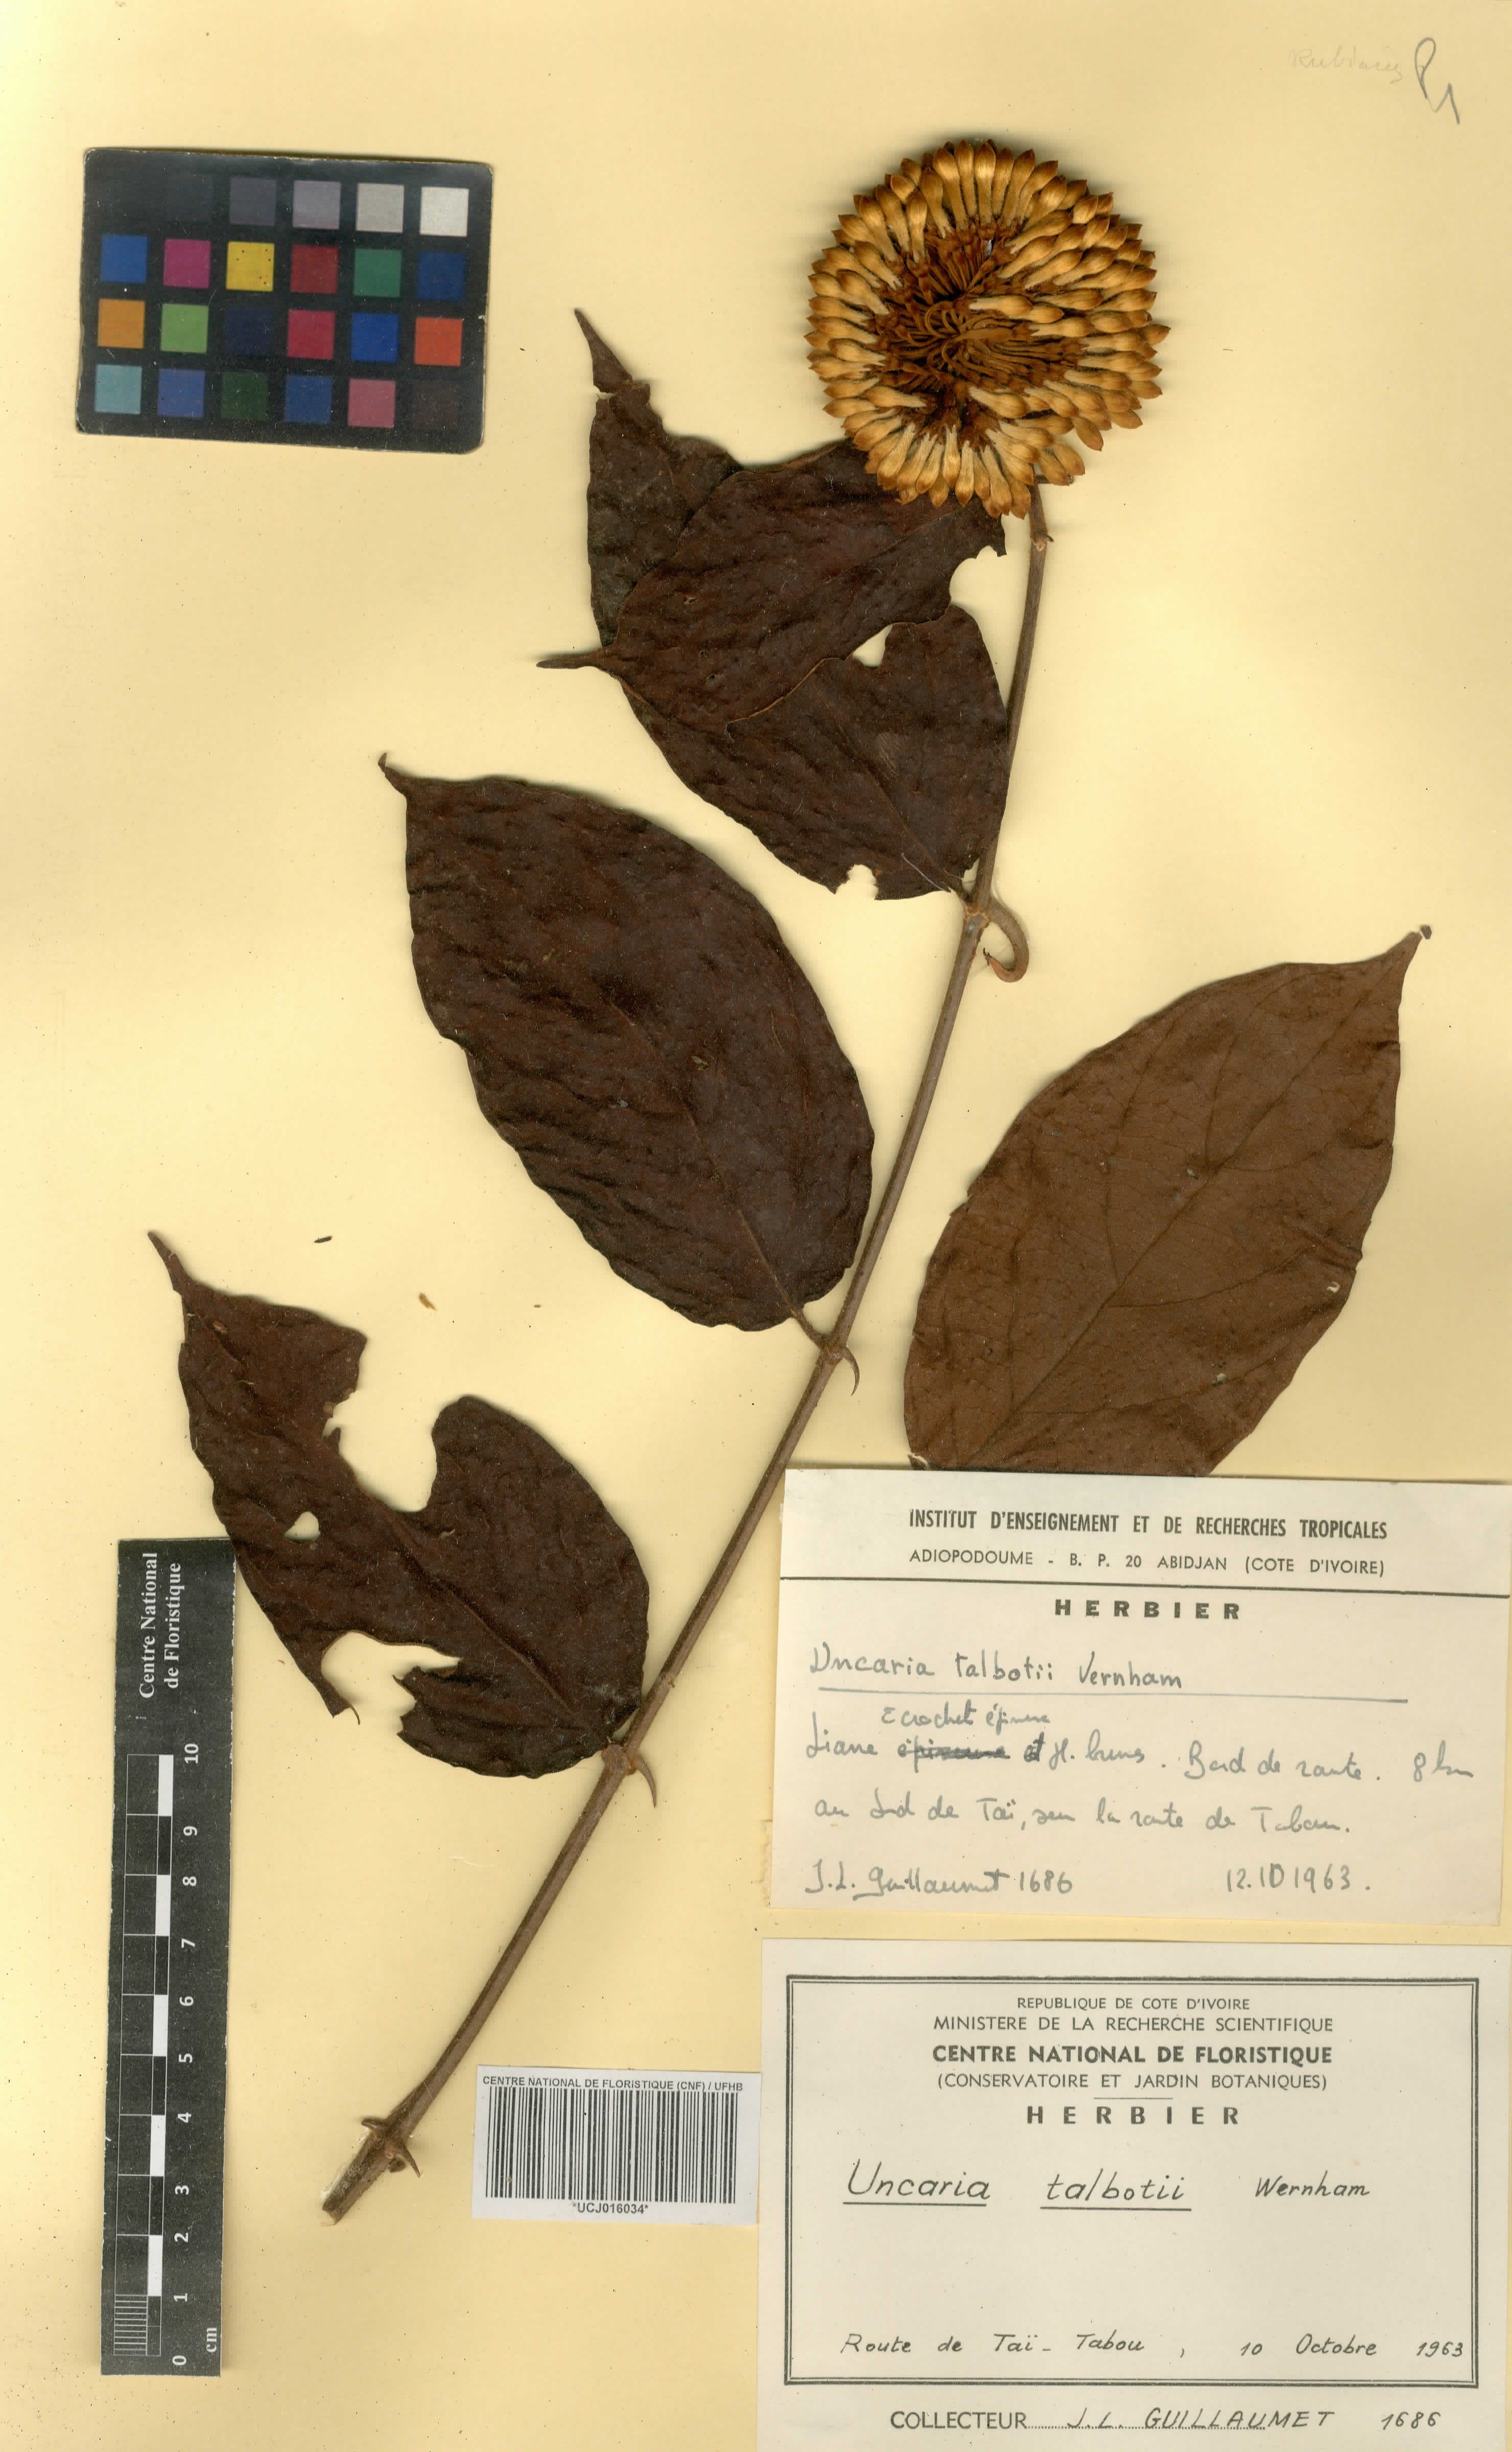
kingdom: Plantae
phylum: Tracheophyta
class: Magnoliopsida
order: Gentianales
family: Rubiaceae
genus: Uncaria
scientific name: Uncaria talbotii
